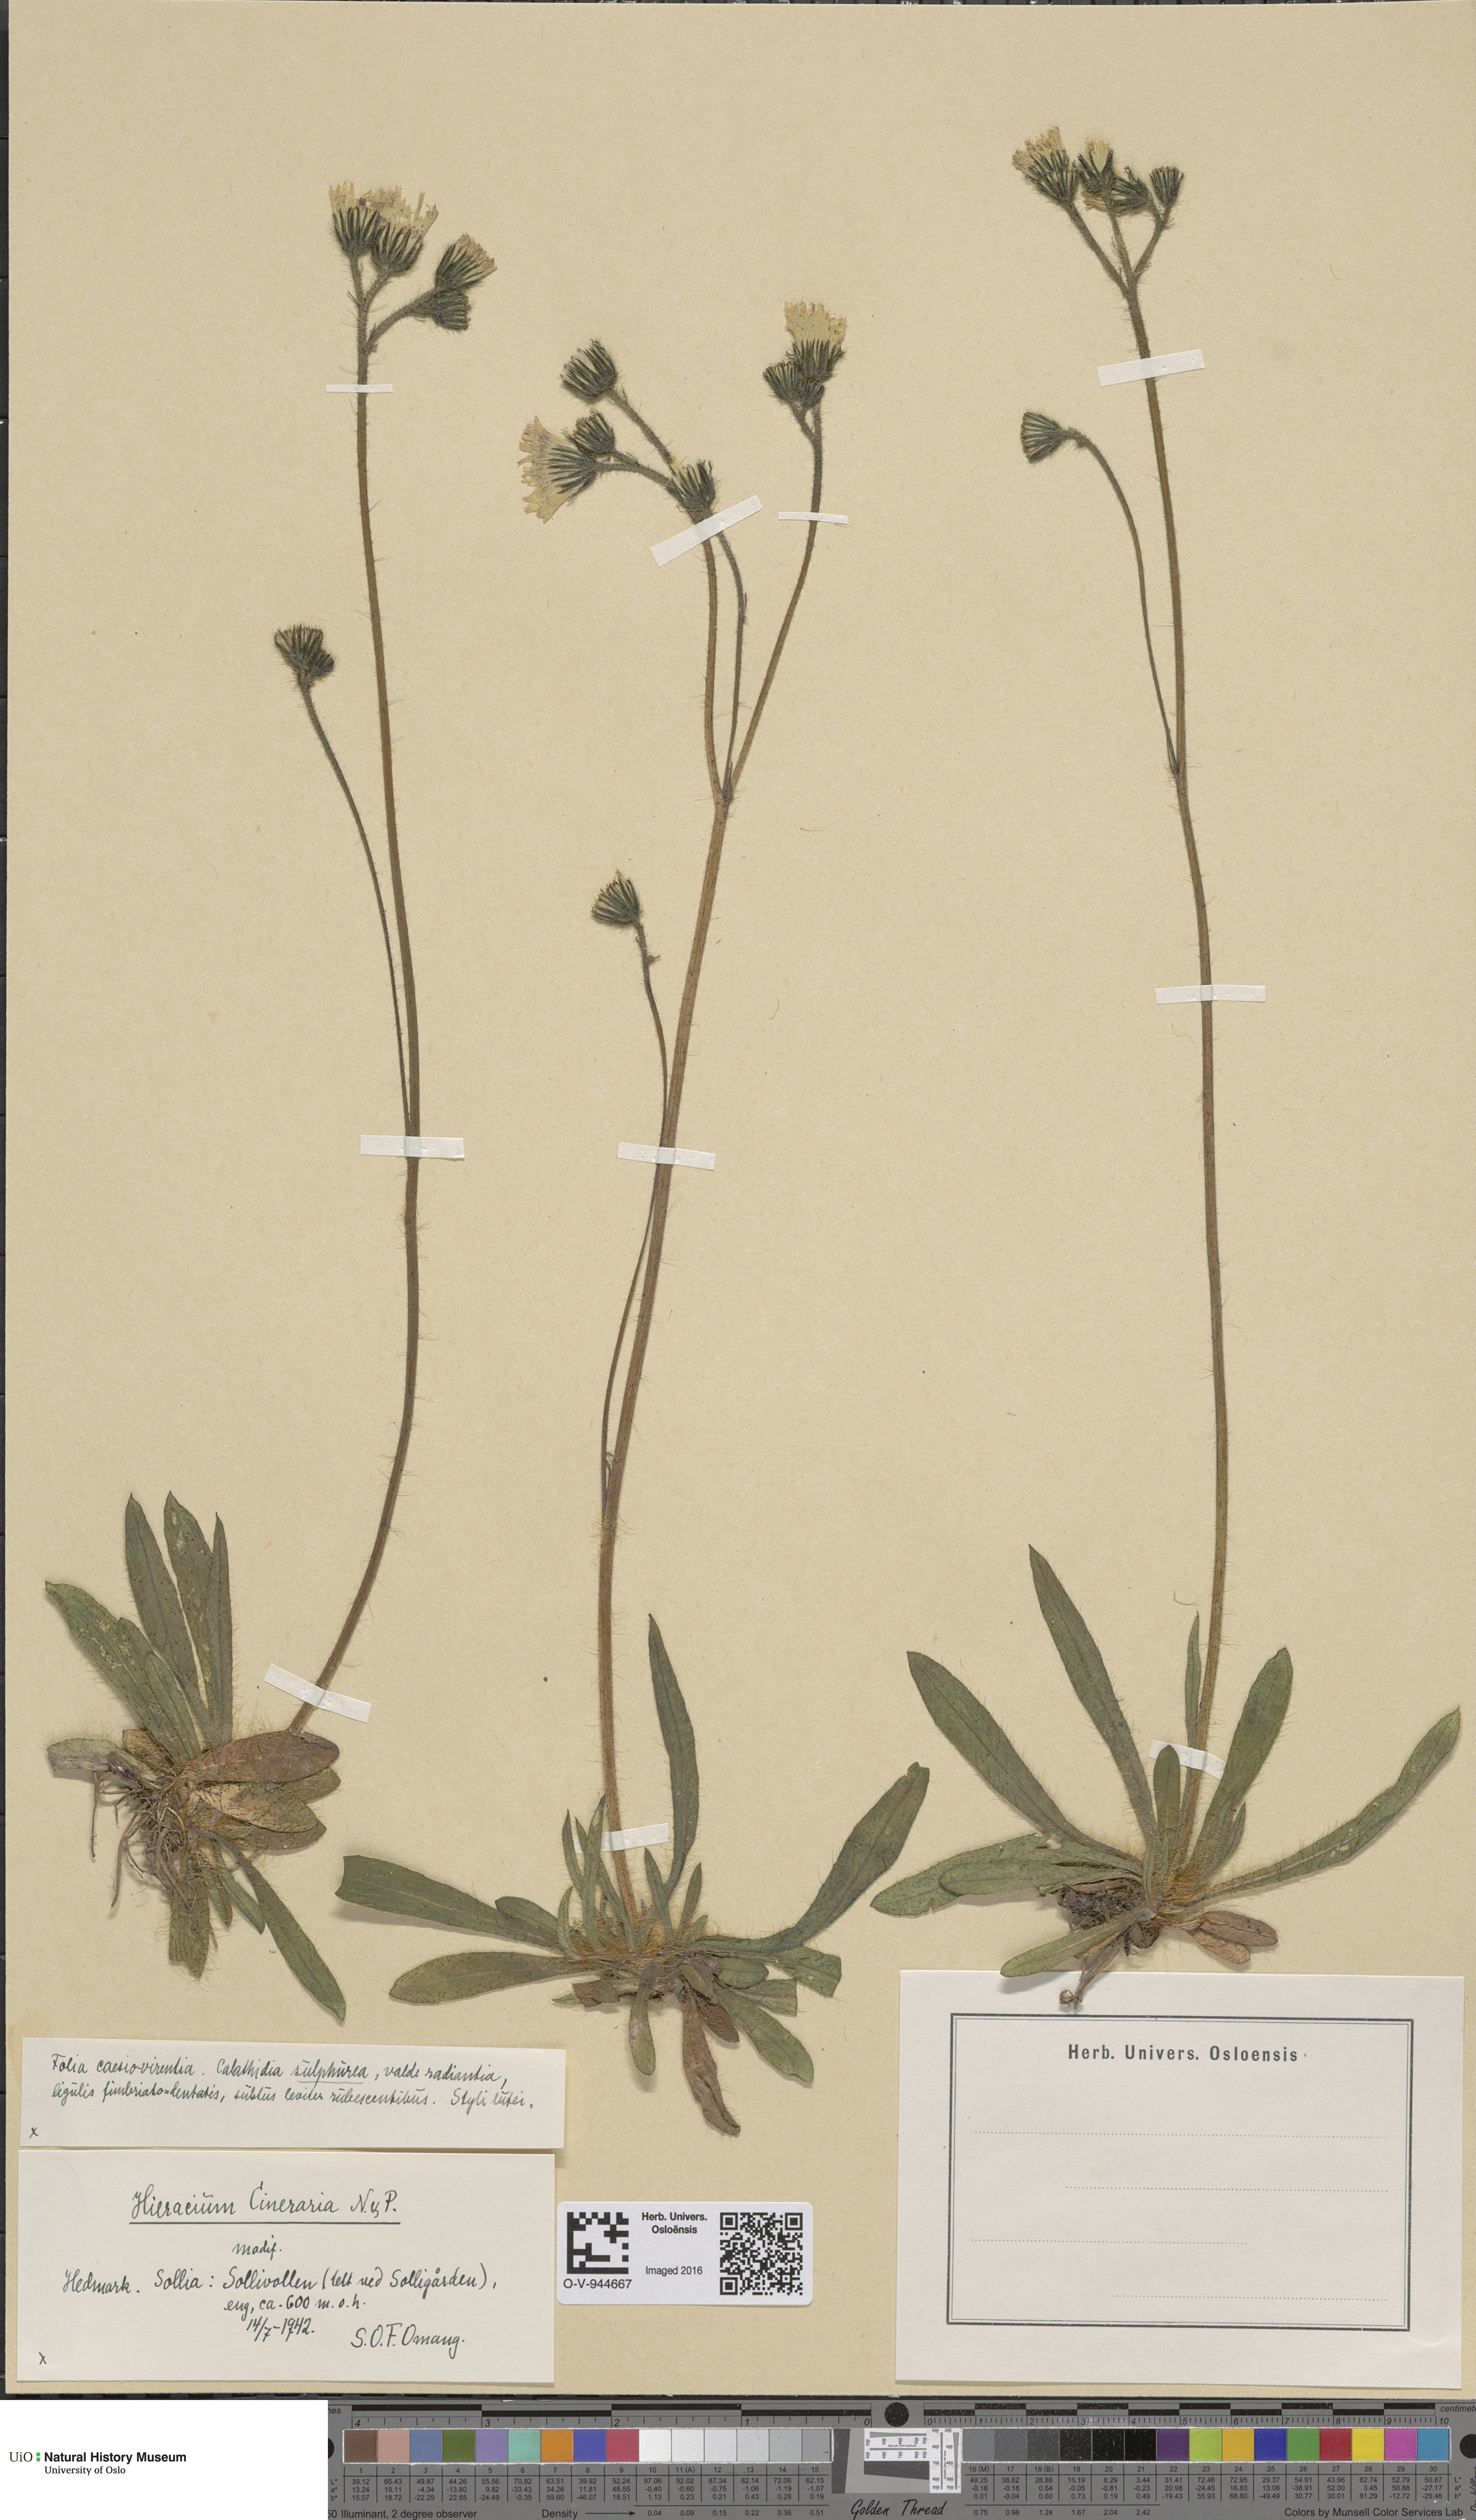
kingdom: Plantae
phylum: Tracheophyta
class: Magnoliopsida
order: Asterales
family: Asteraceae
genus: Pilosella
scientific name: Pilosella moechiadia
